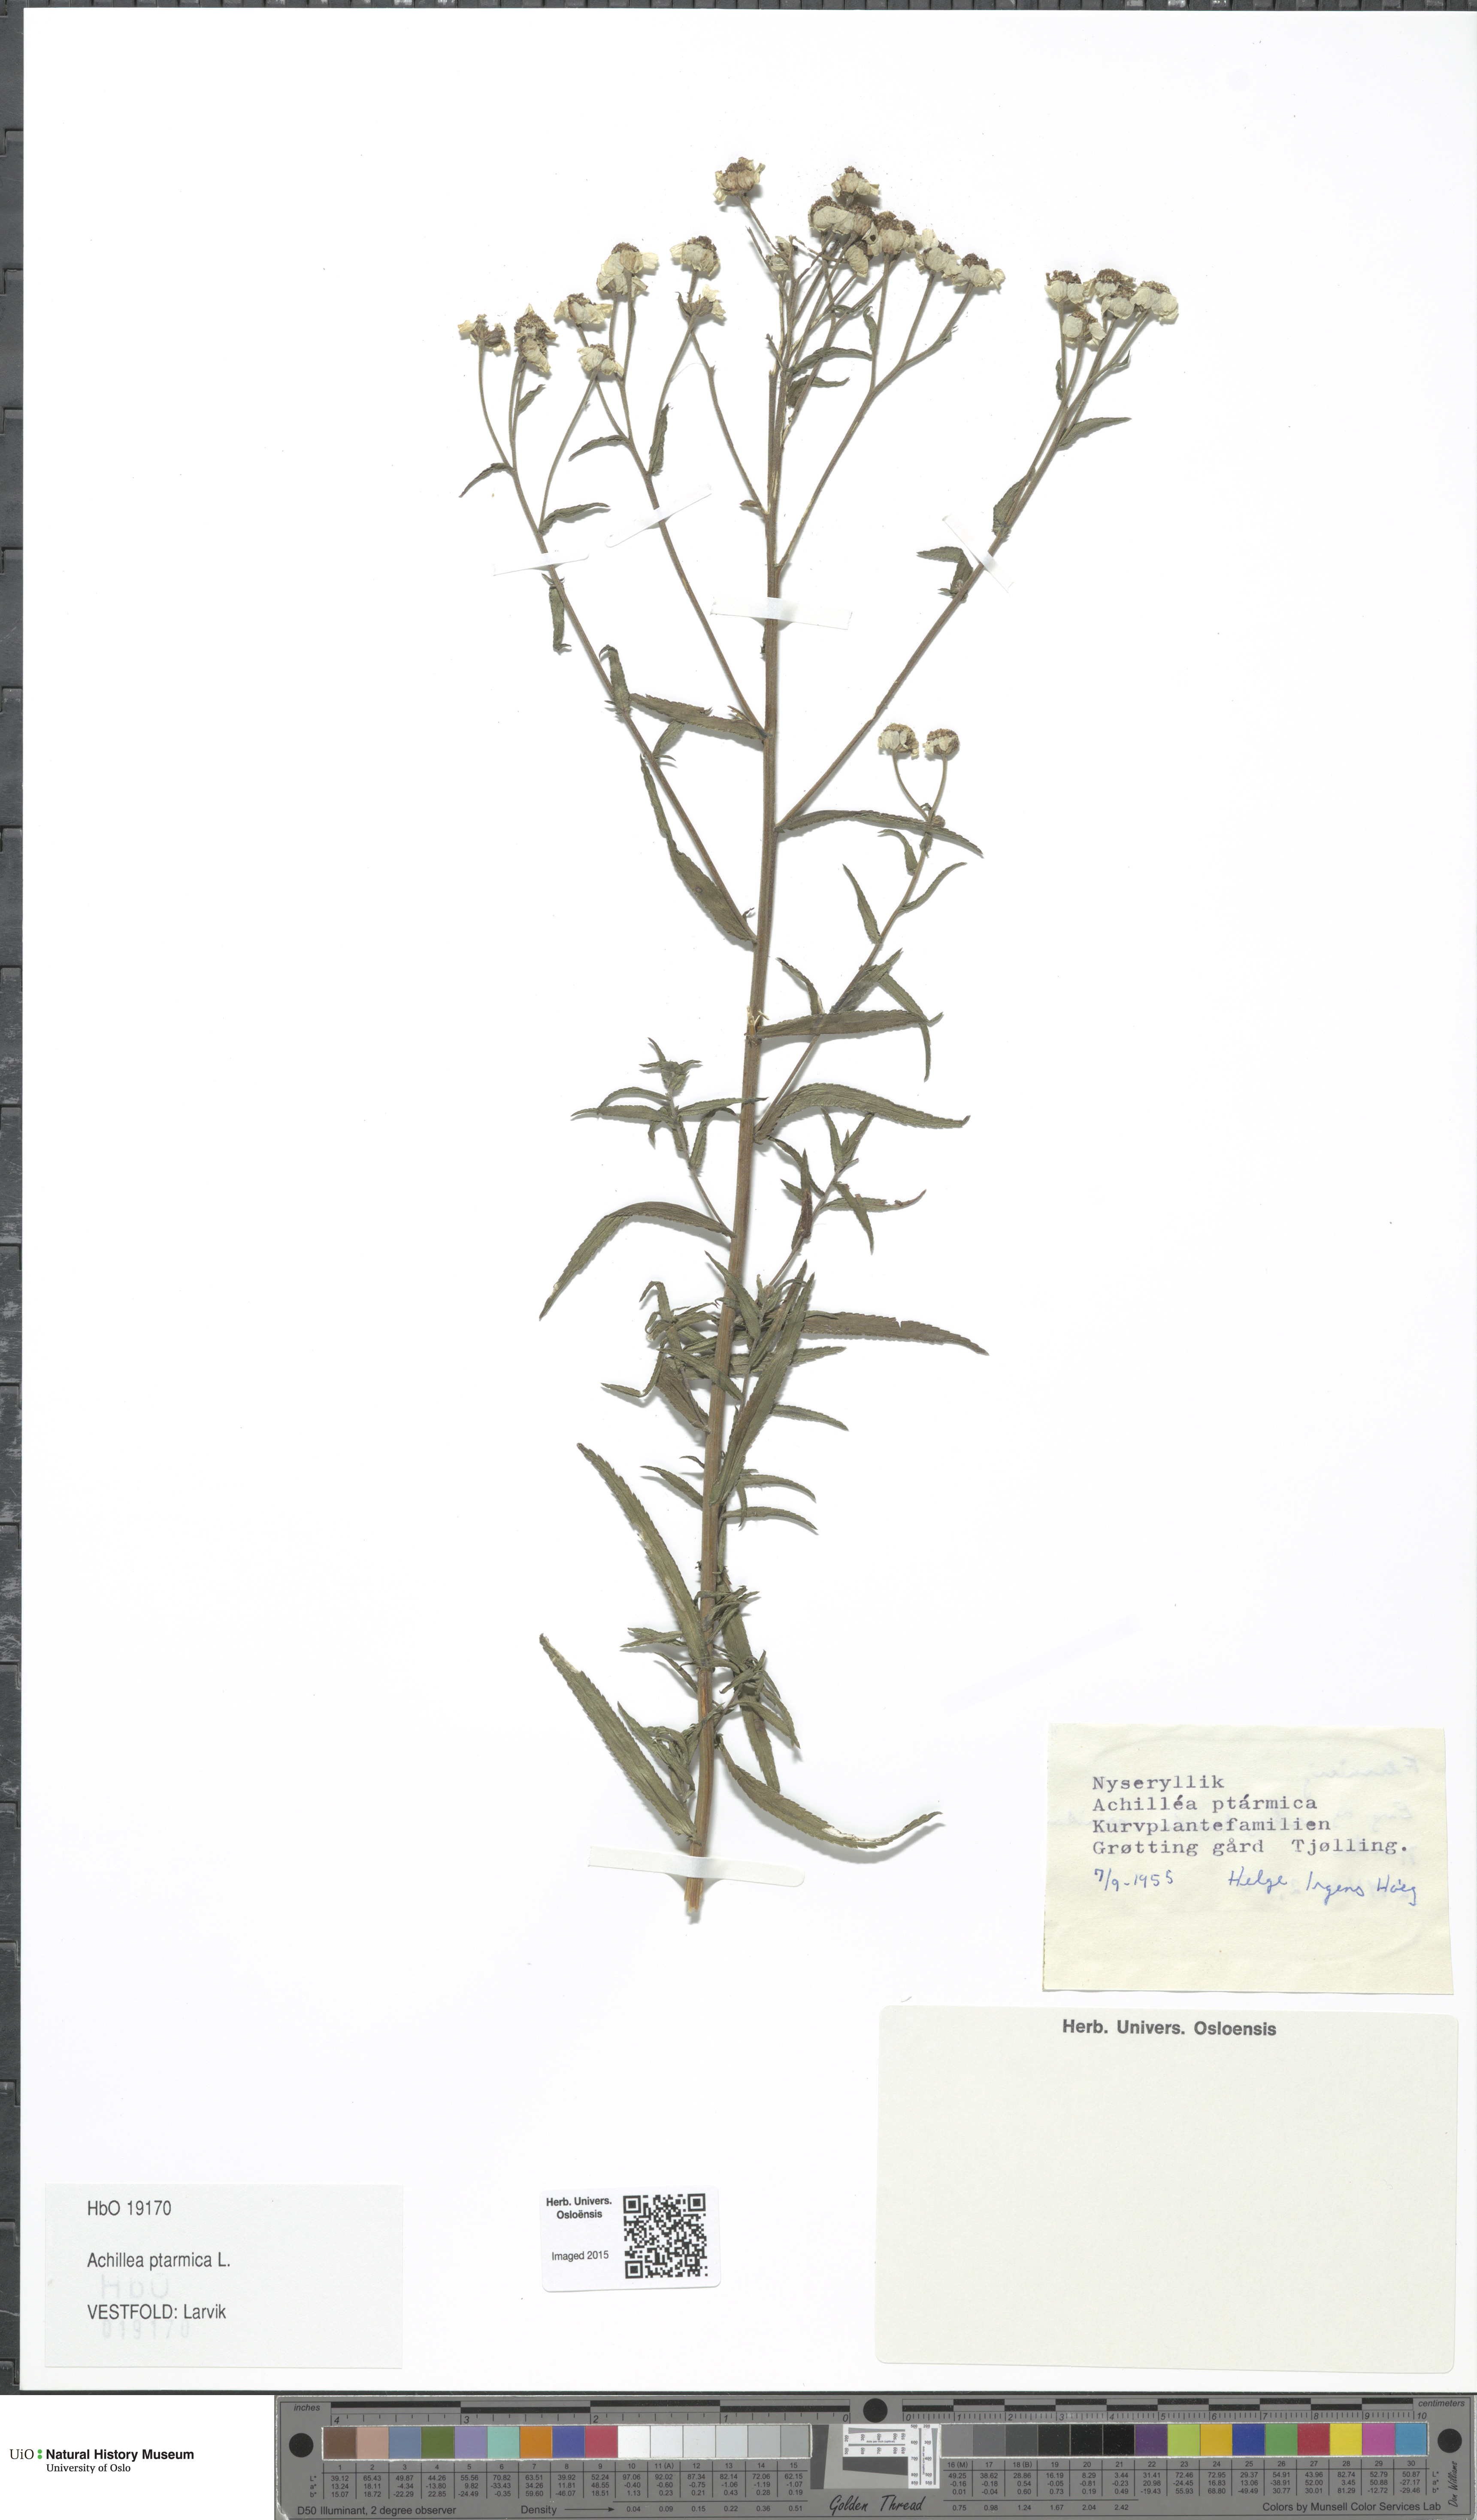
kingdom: Plantae
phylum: Tracheophyta
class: Magnoliopsida
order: Asterales
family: Asteraceae
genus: Achillea
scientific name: Achillea ptarmica
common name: Sneezeweed
